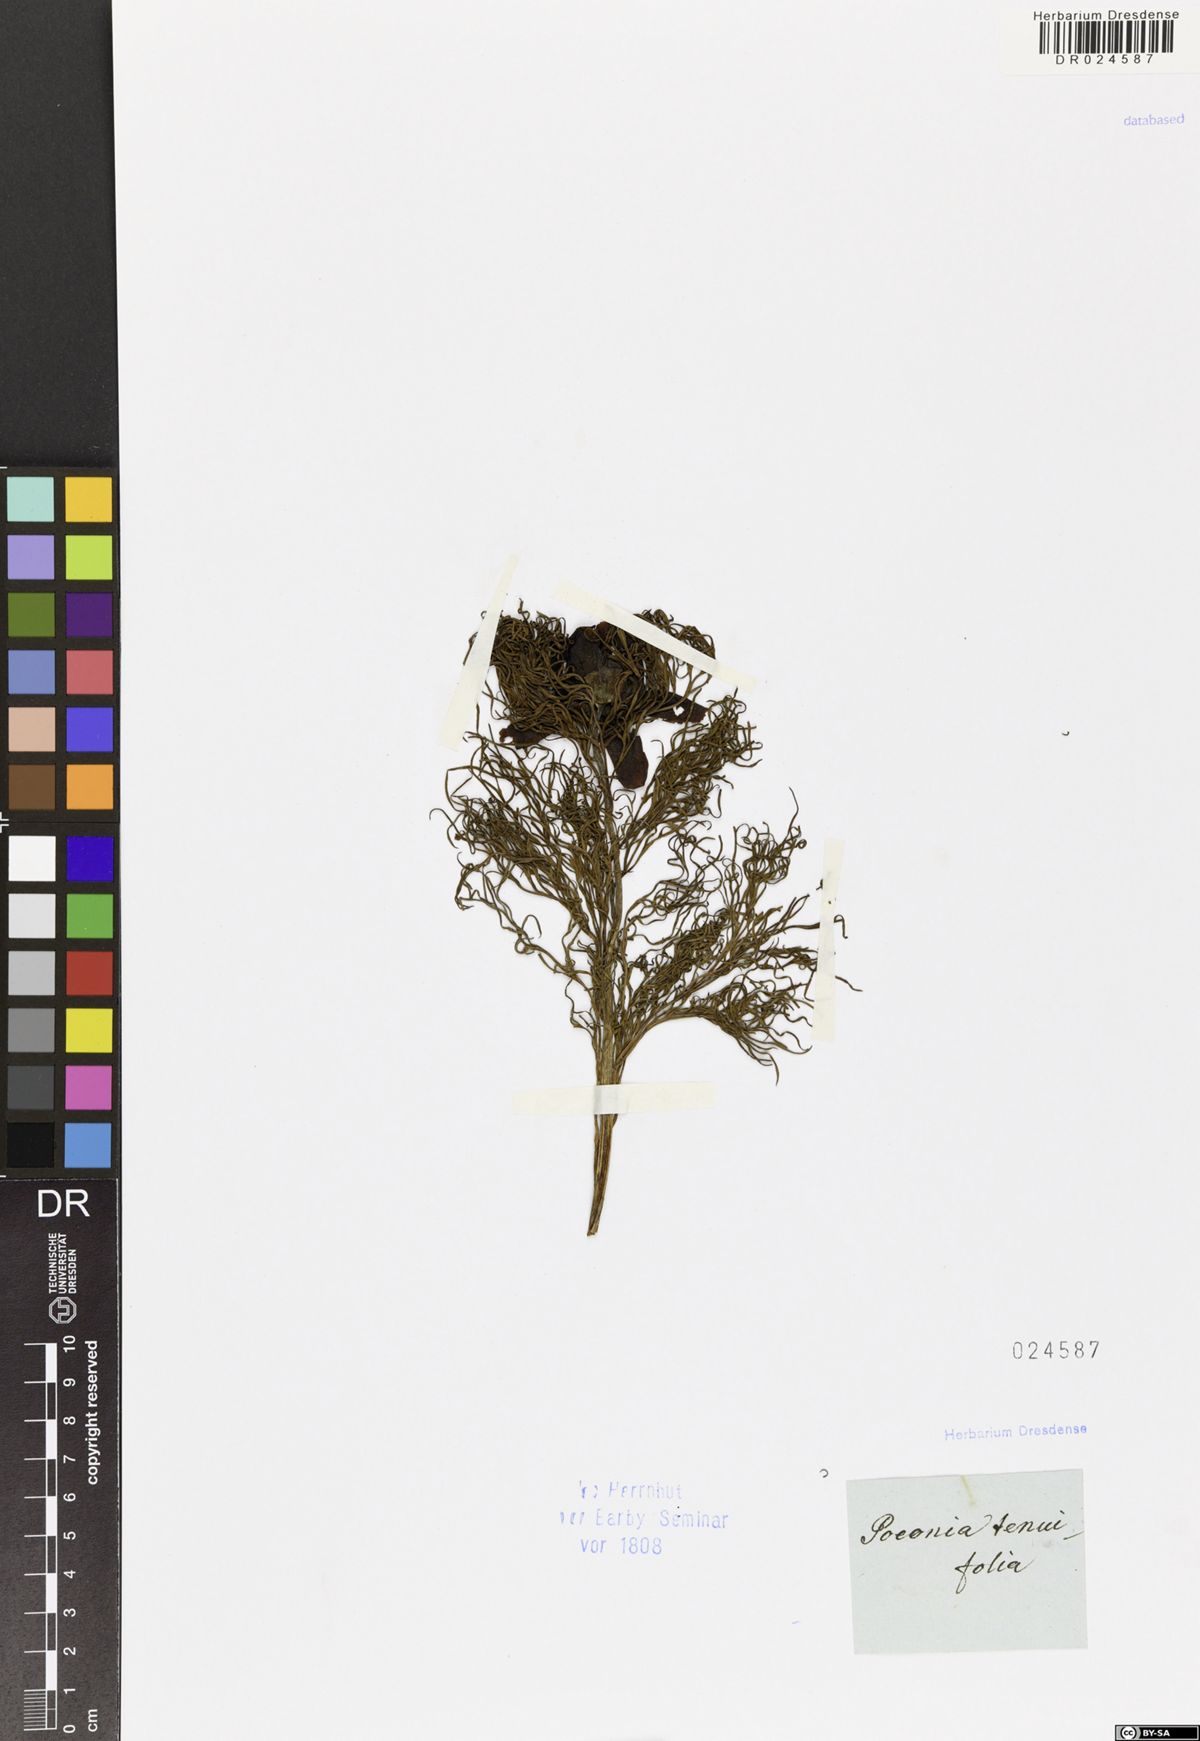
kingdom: Plantae
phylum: Tracheophyta
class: Magnoliopsida
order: Saxifragales
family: Paeoniaceae
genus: Paeonia
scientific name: Paeonia tenuifolia
